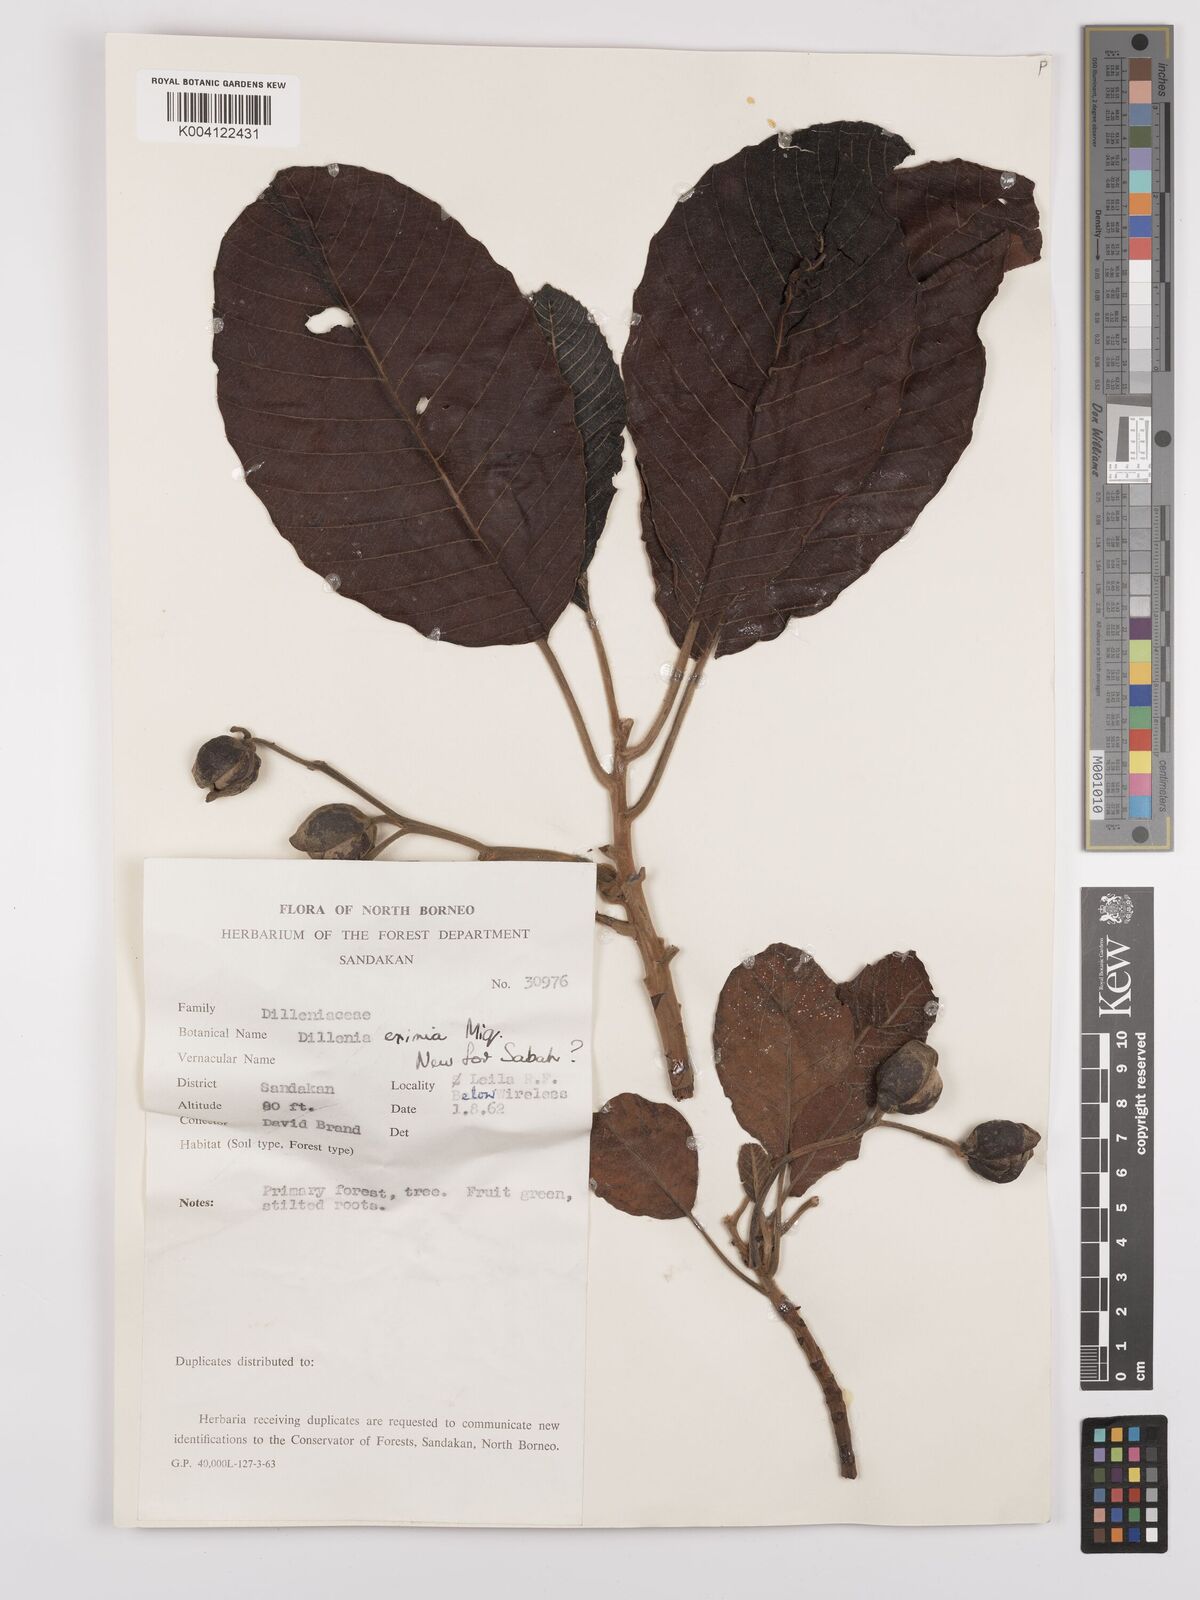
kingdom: Plantae
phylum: Tracheophyta
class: Magnoliopsida
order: Dilleniales
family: Dilleniaceae
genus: Dillenia
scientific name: Dillenia grandifolia
